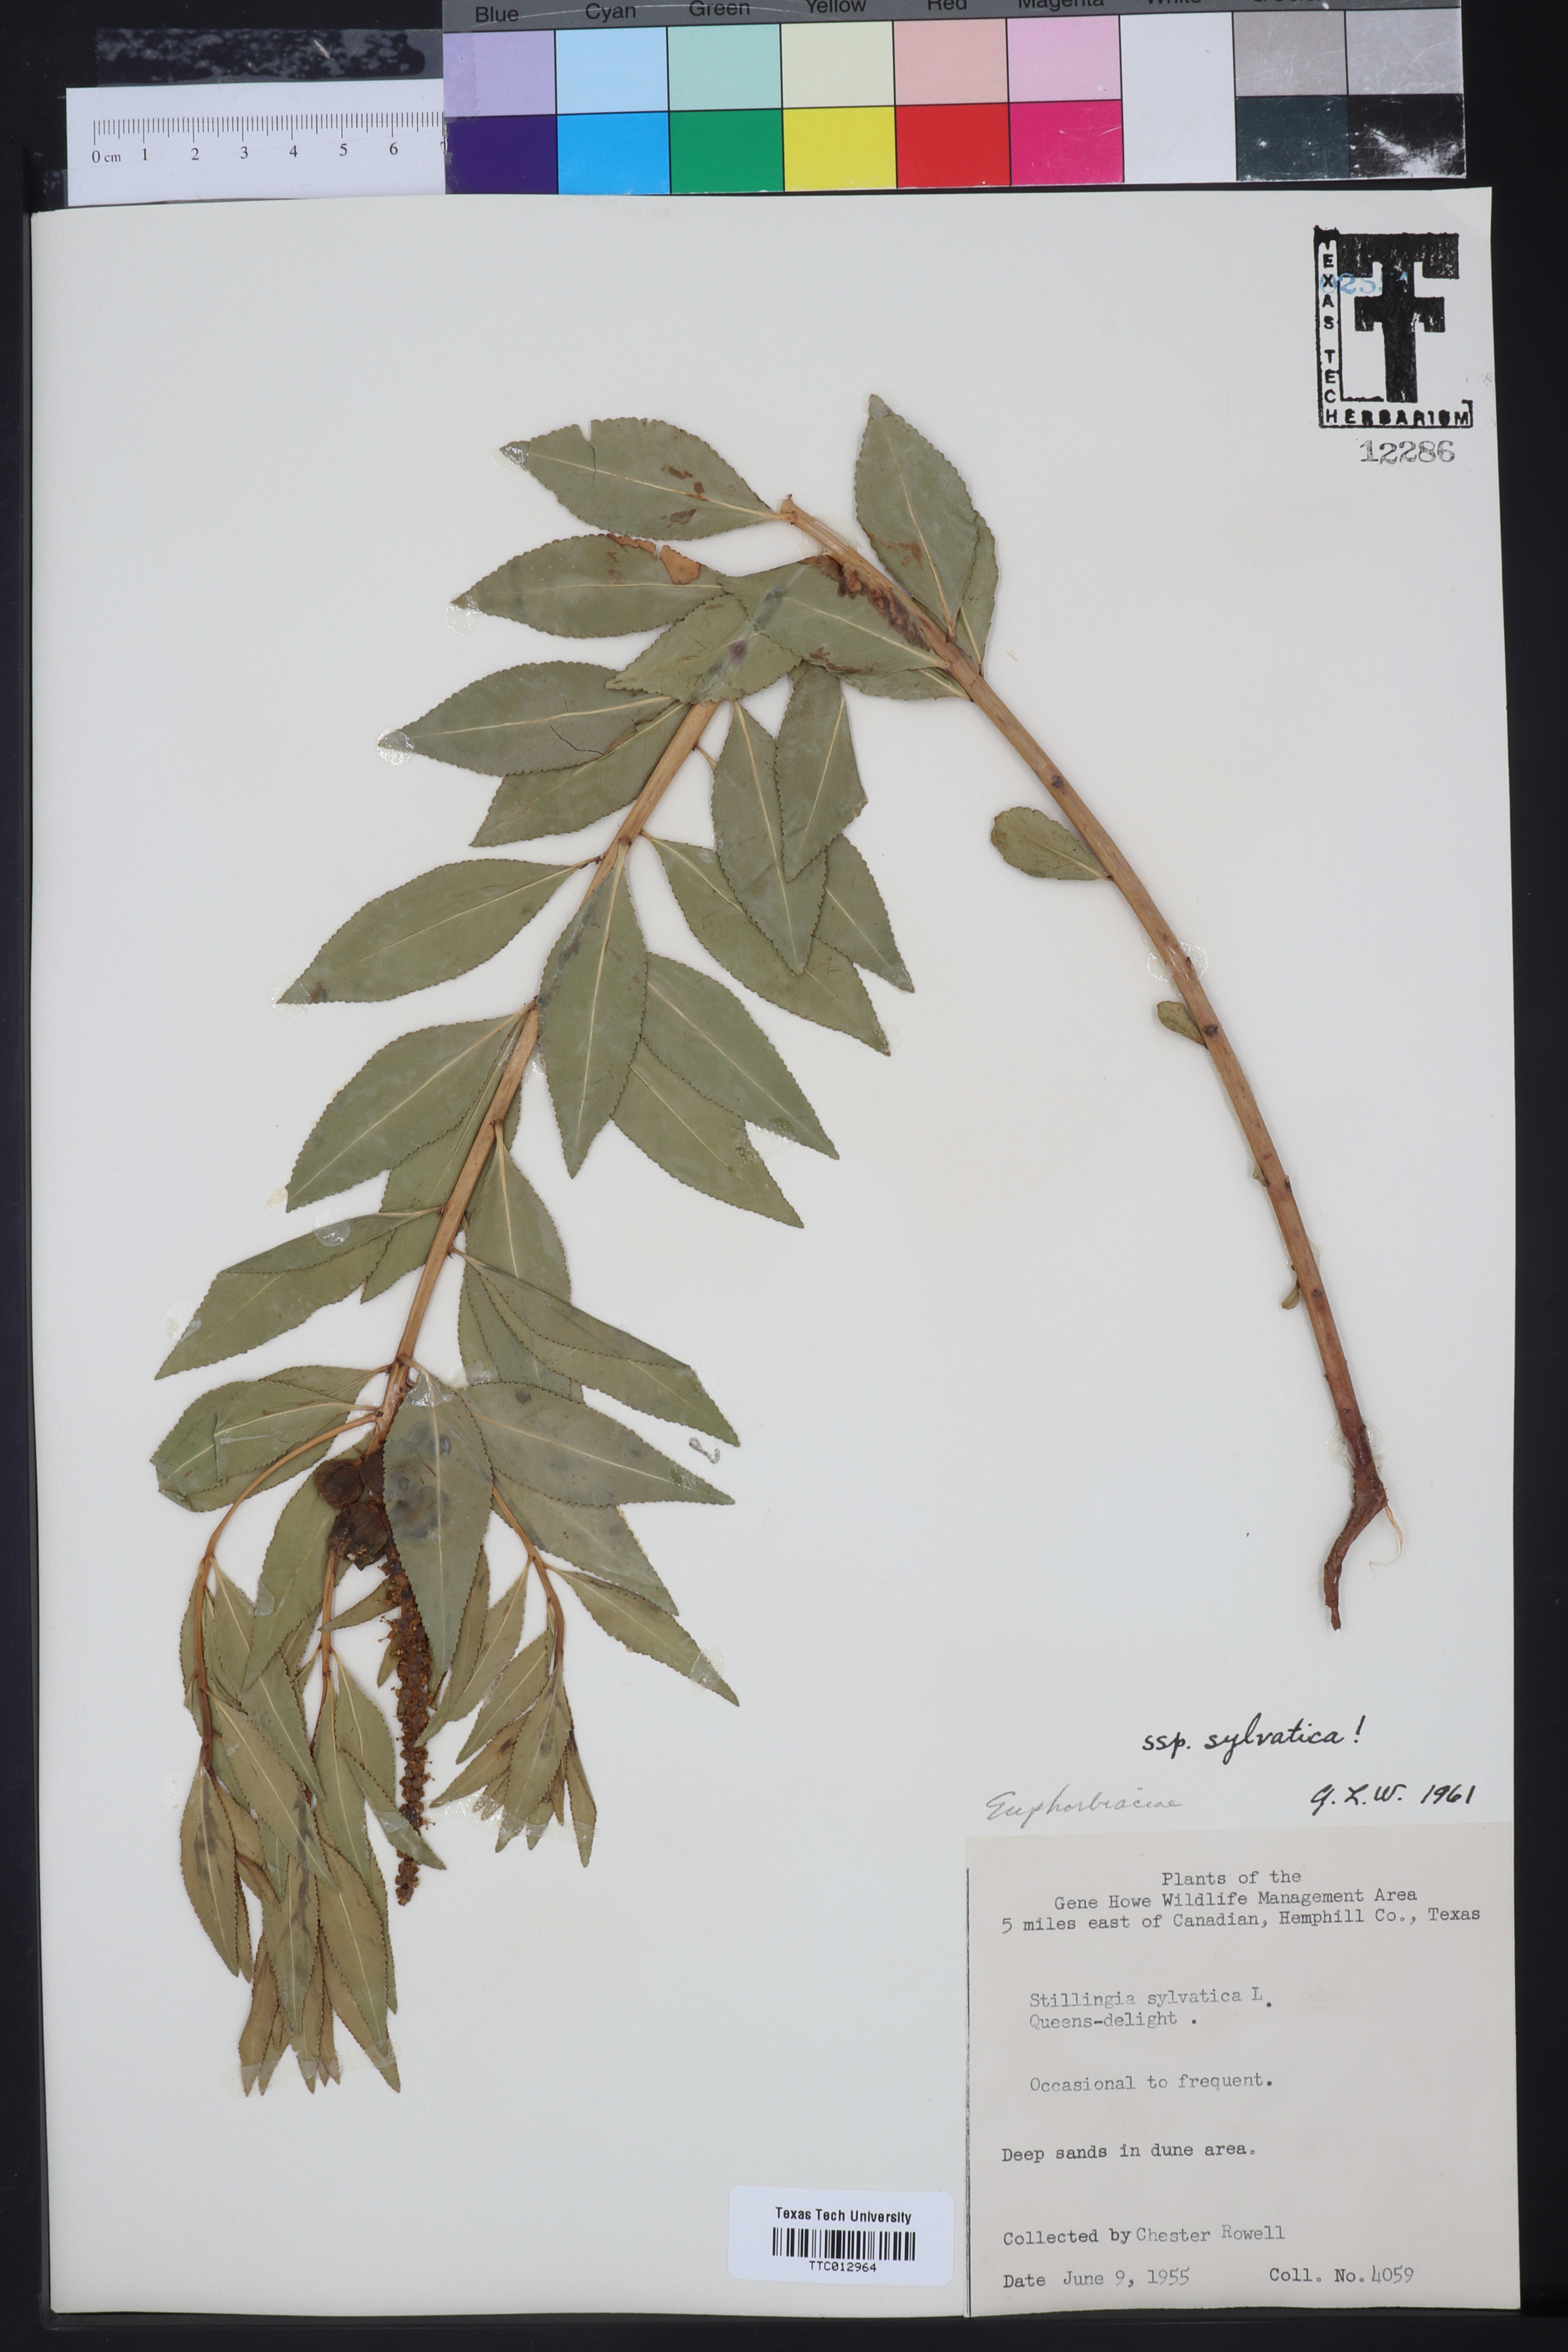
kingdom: Plantae
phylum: Tracheophyta
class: Magnoliopsida
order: Malpighiales
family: Euphorbiaceae
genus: Stillingia
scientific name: Stillingia sylvatica
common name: Queen's-delight
